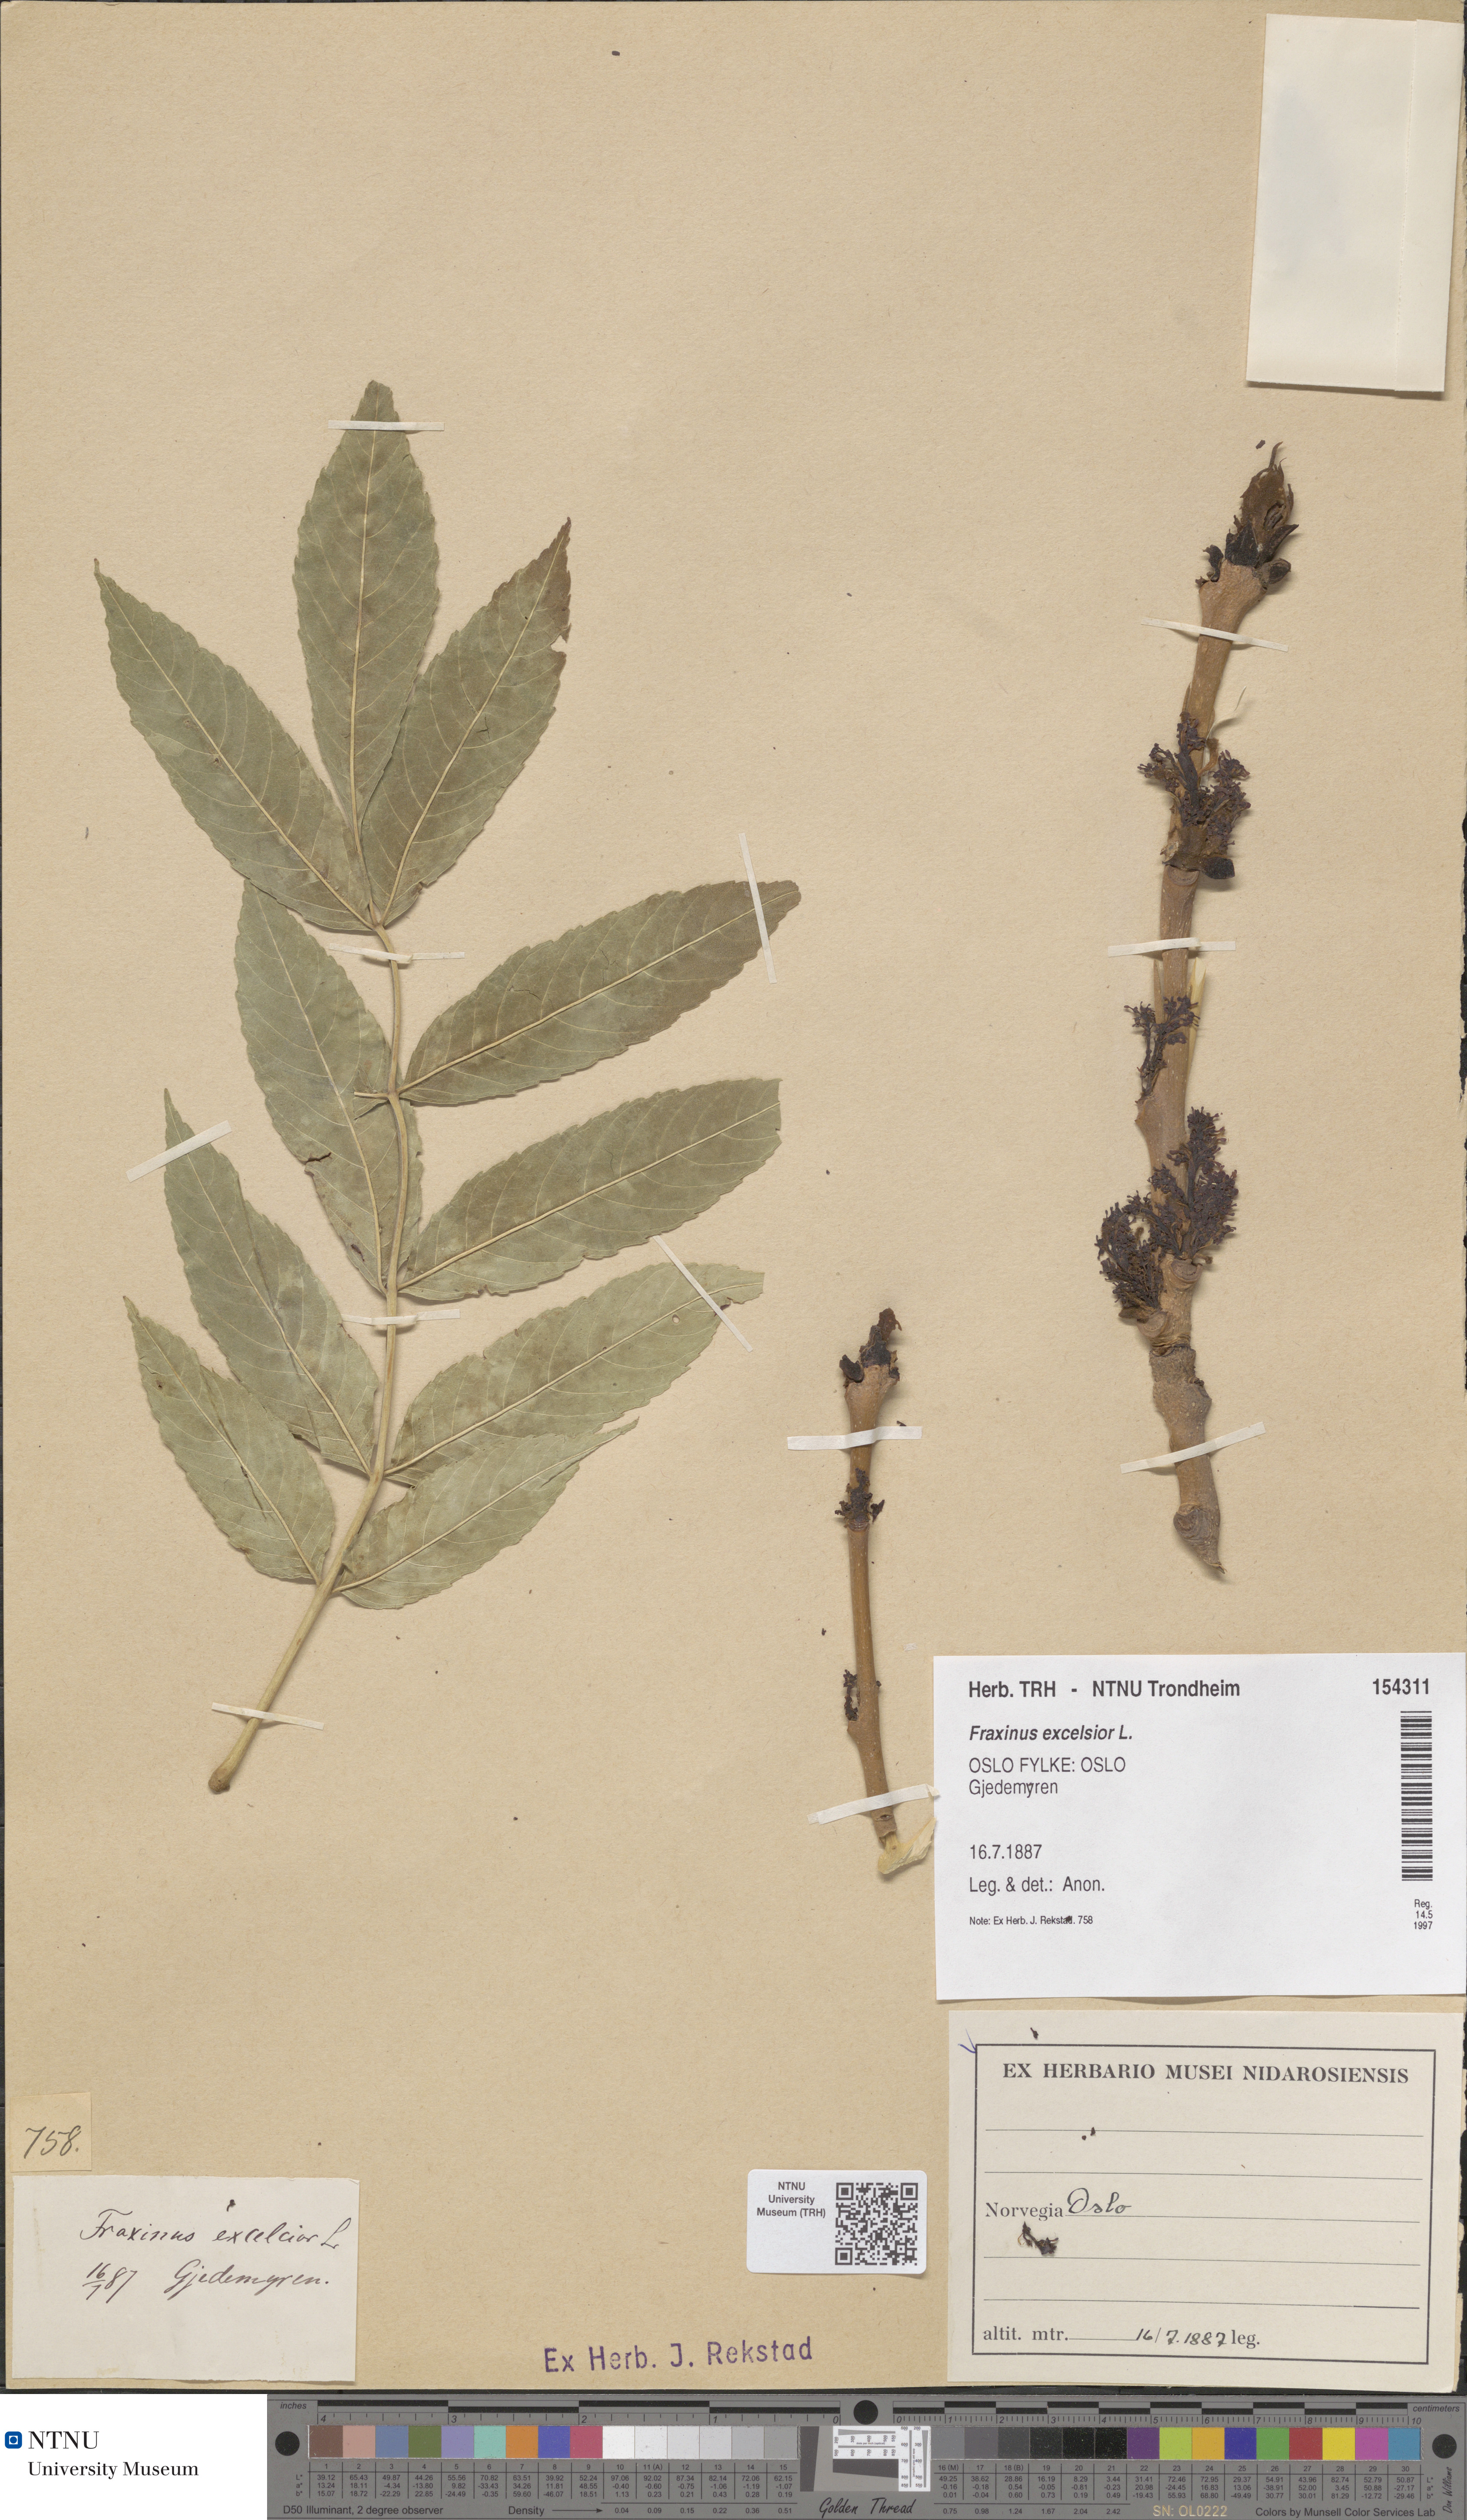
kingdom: Plantae
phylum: Tracheophyta
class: Magnoliopsida
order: Lamiales
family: Oleaceae
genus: Fraxinus
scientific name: Fraxinus excelsior
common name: European ash
